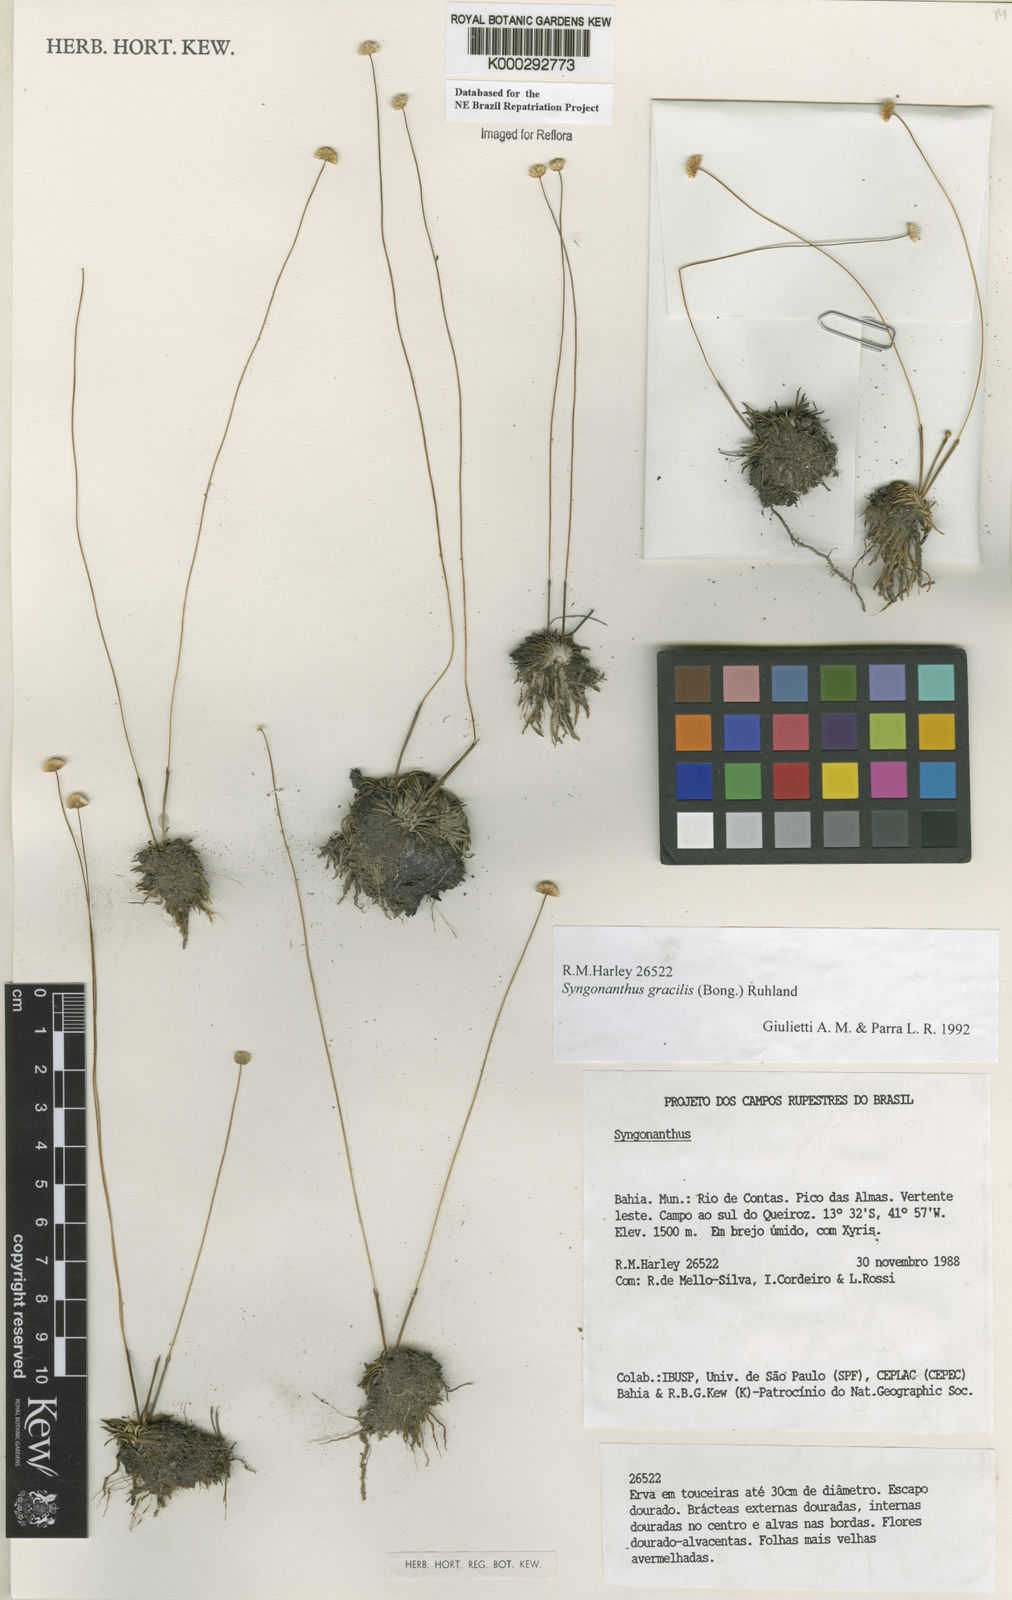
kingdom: Plantae
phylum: Tracheophyta
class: Liliopsida
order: Poales
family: Eriocaulaceae
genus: Syngonanthus
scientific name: Syngonanthus gracilis
